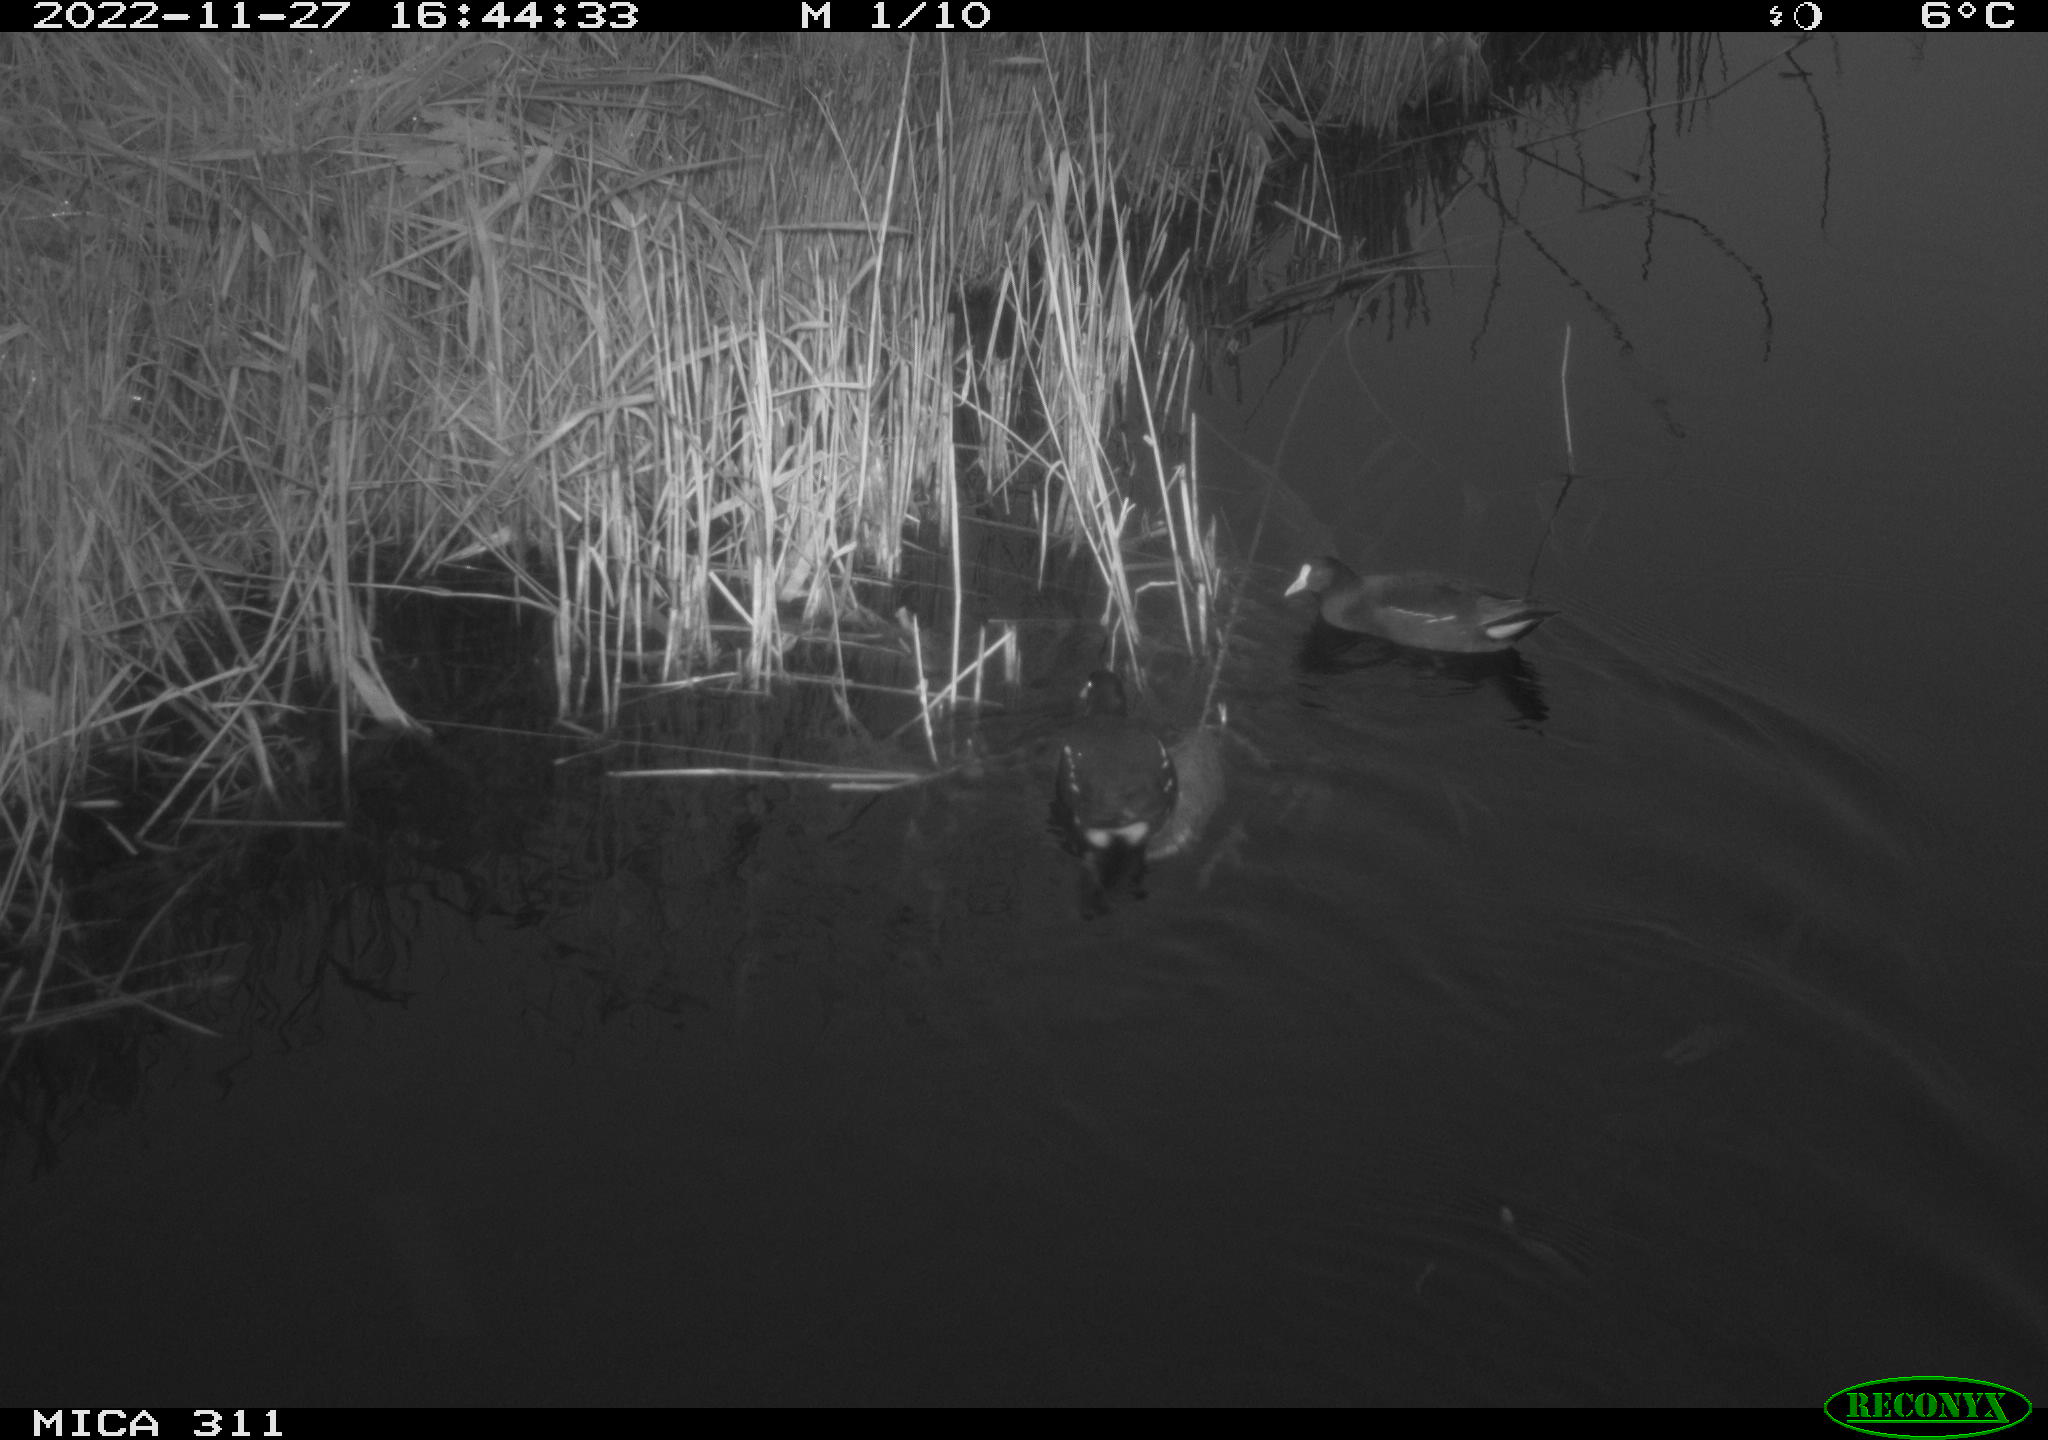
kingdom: Animalia
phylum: Chordata
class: Aves
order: Gruiformes
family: Rallidae
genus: Gallinula
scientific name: Gallinula chloropus
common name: Common moorhen
